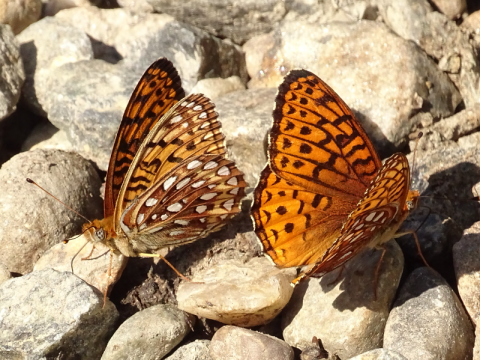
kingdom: Animalia
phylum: Arthropoda
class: Insecta
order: Lepidoptera
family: Nymphalidae
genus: Speyeria
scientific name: Speyeria atlantis
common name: Atlantis Fritillary
